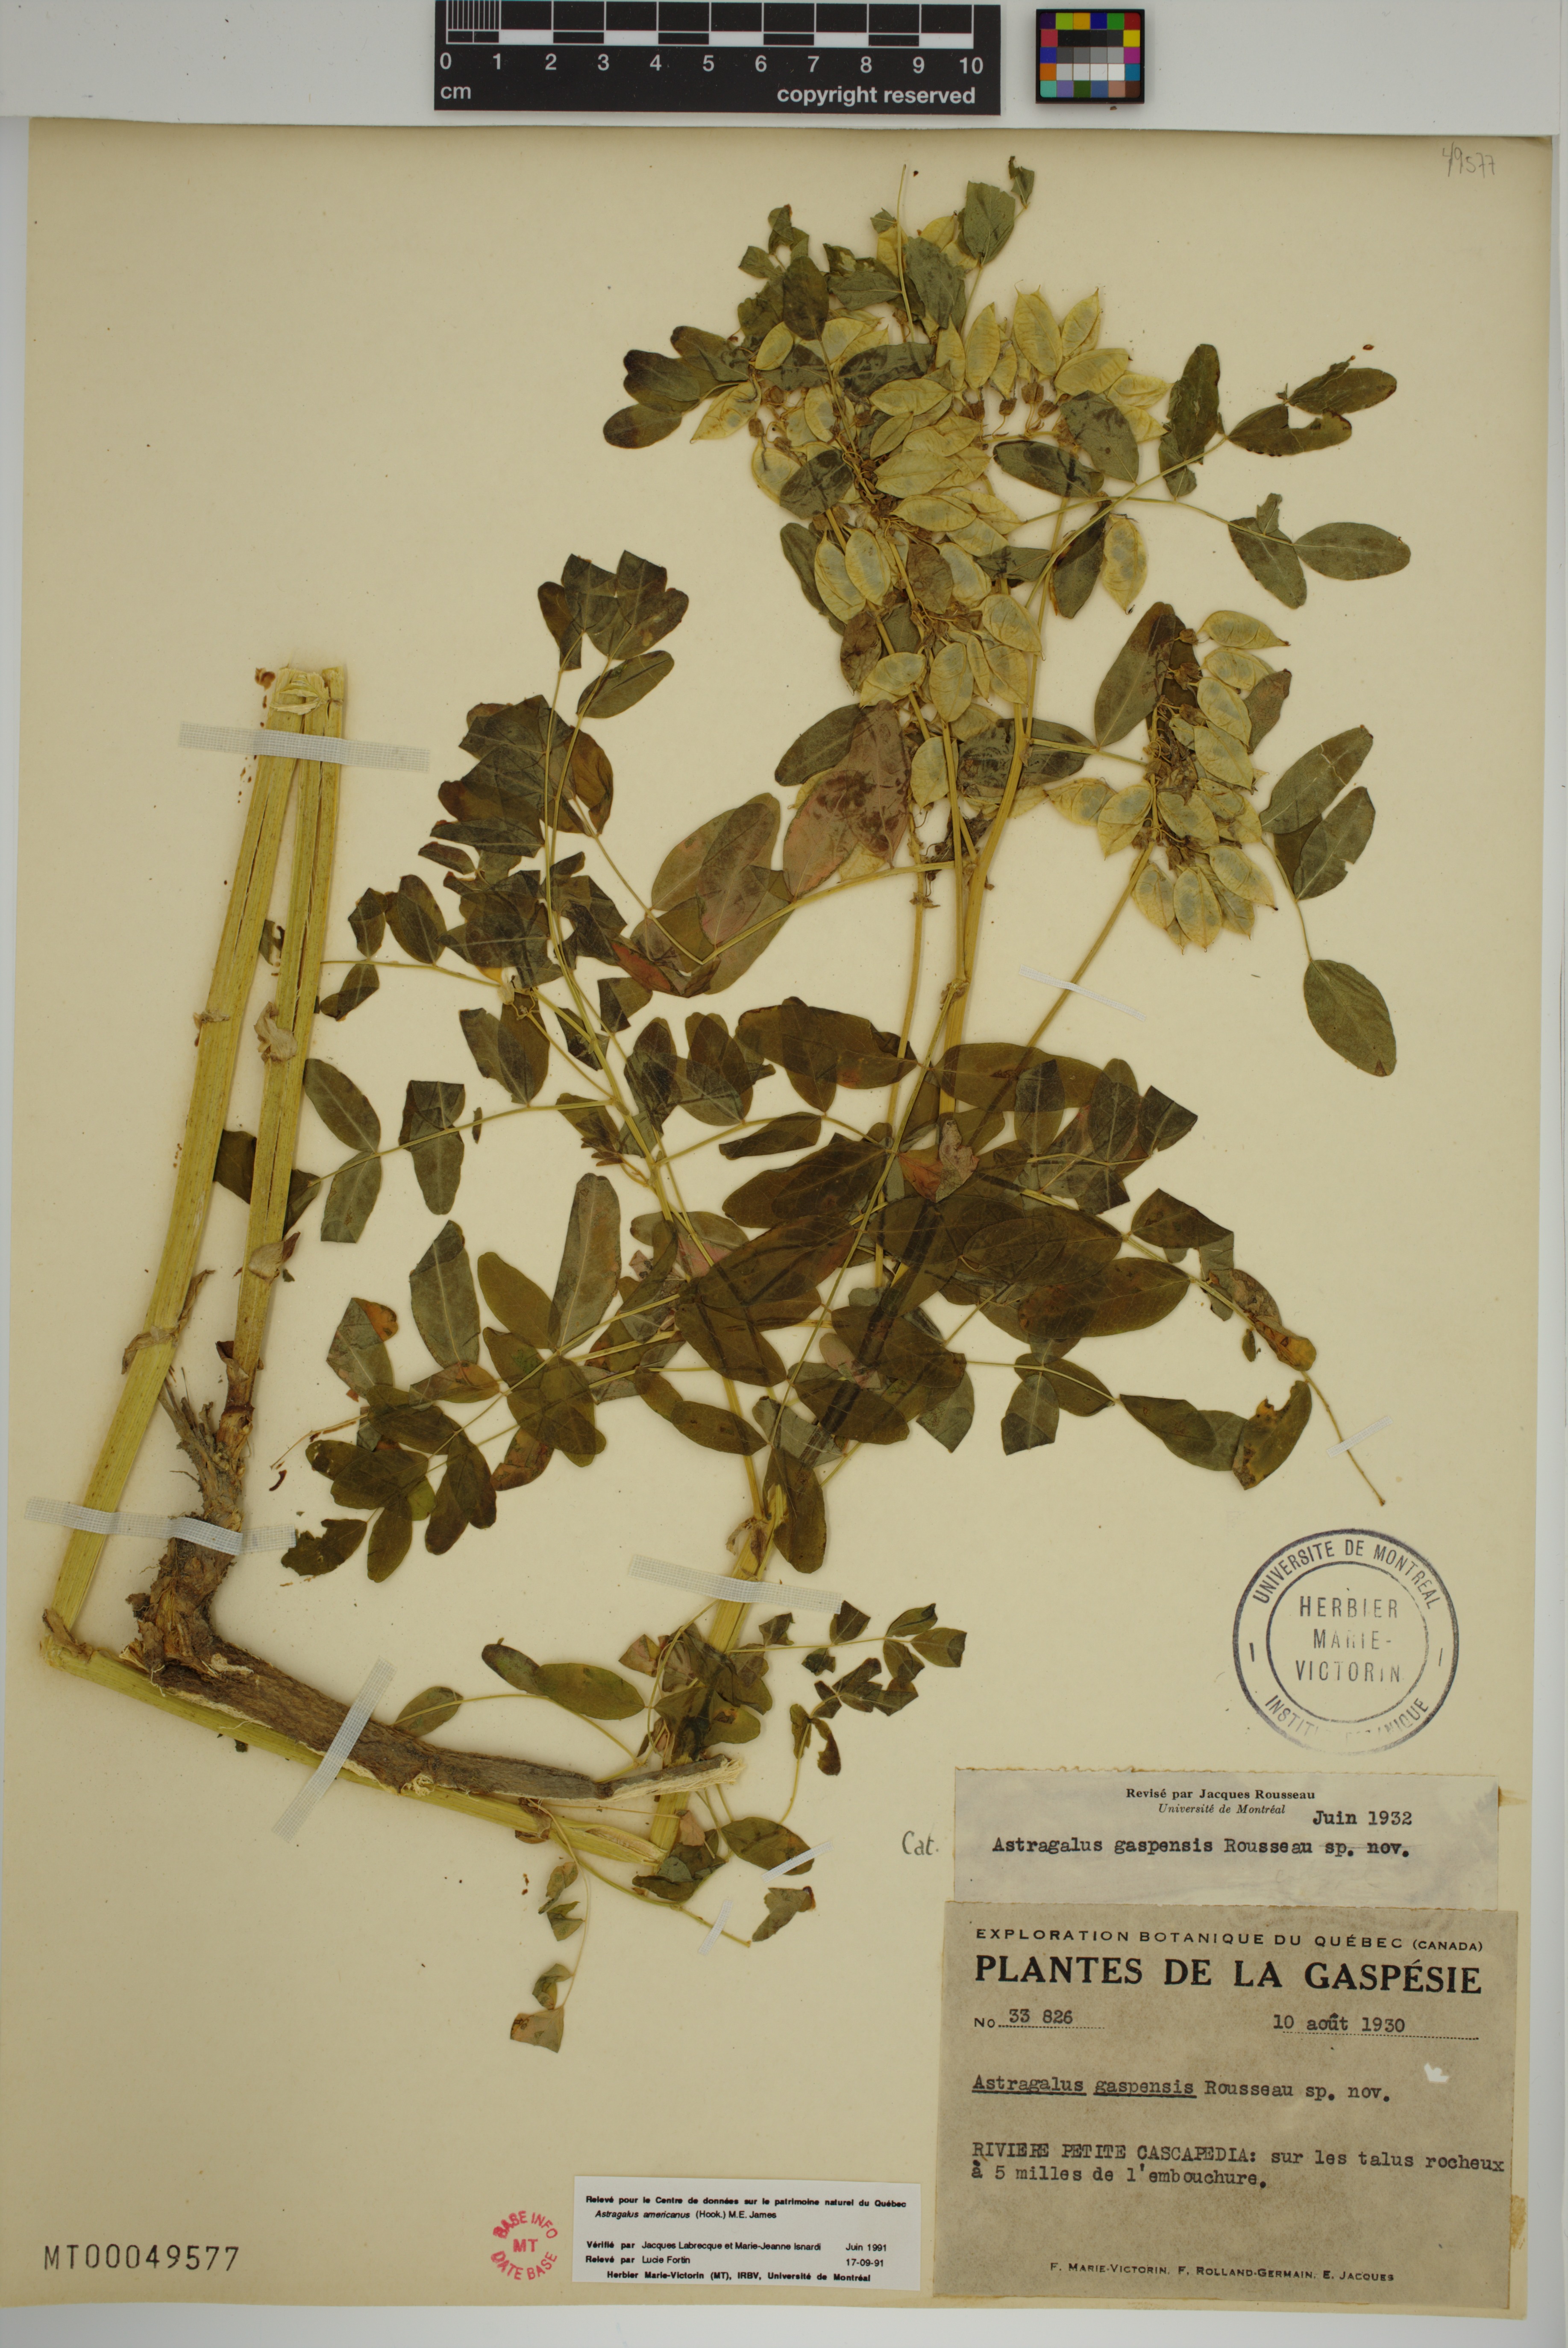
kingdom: Plantae
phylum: Tracheophyta
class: Magnoliopsida
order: Fabales
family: Fabaceae
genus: Astragalus
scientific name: Astragalus americanus
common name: American milk-vetch
